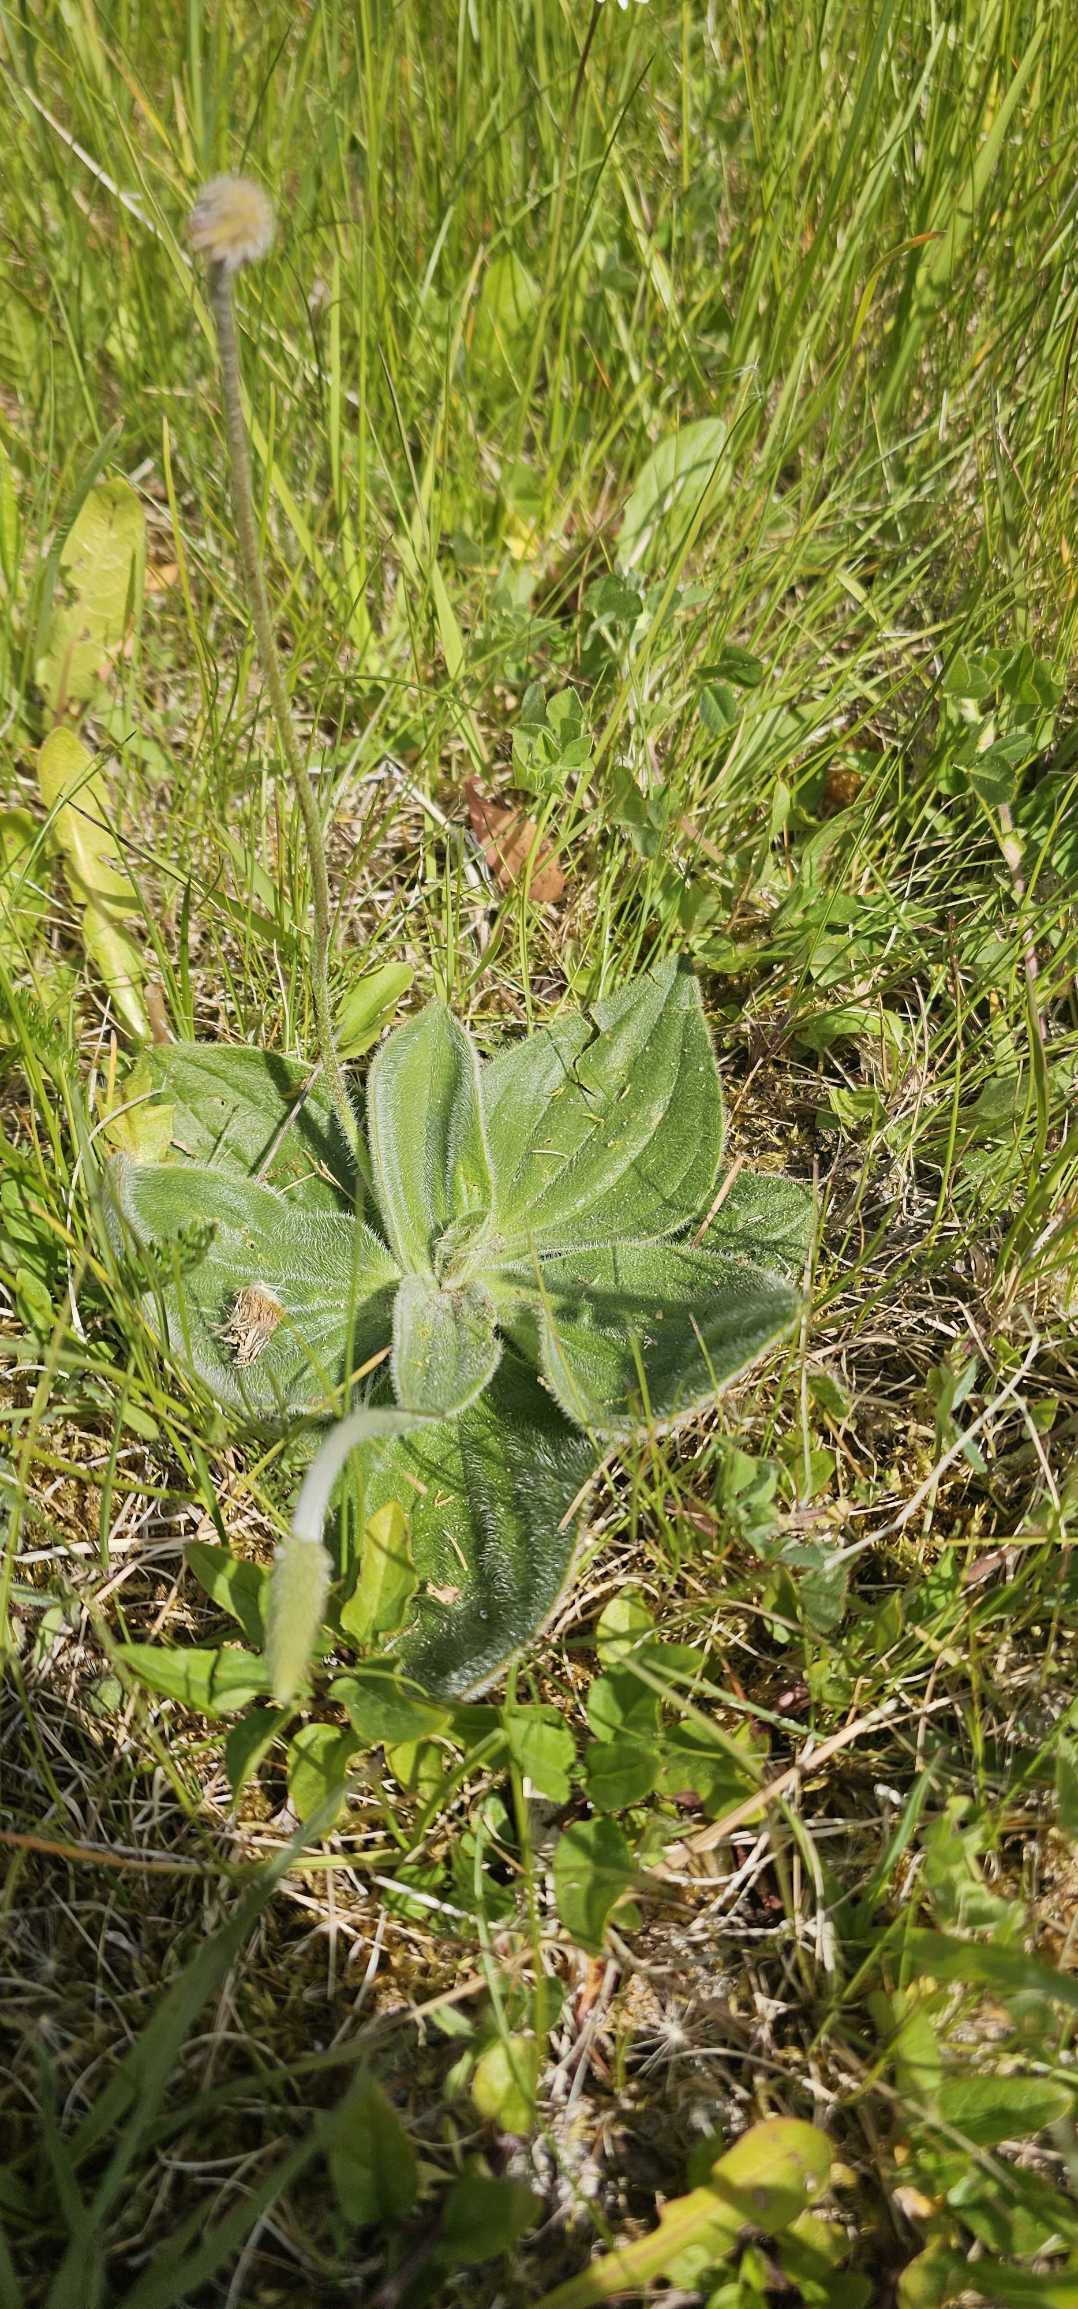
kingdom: Plantae
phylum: Tracheophyta
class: Magnoliopsida
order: Lamiales
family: Plantaginaceae
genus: Plantago
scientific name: Plantago media
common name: Dunet vejbred
